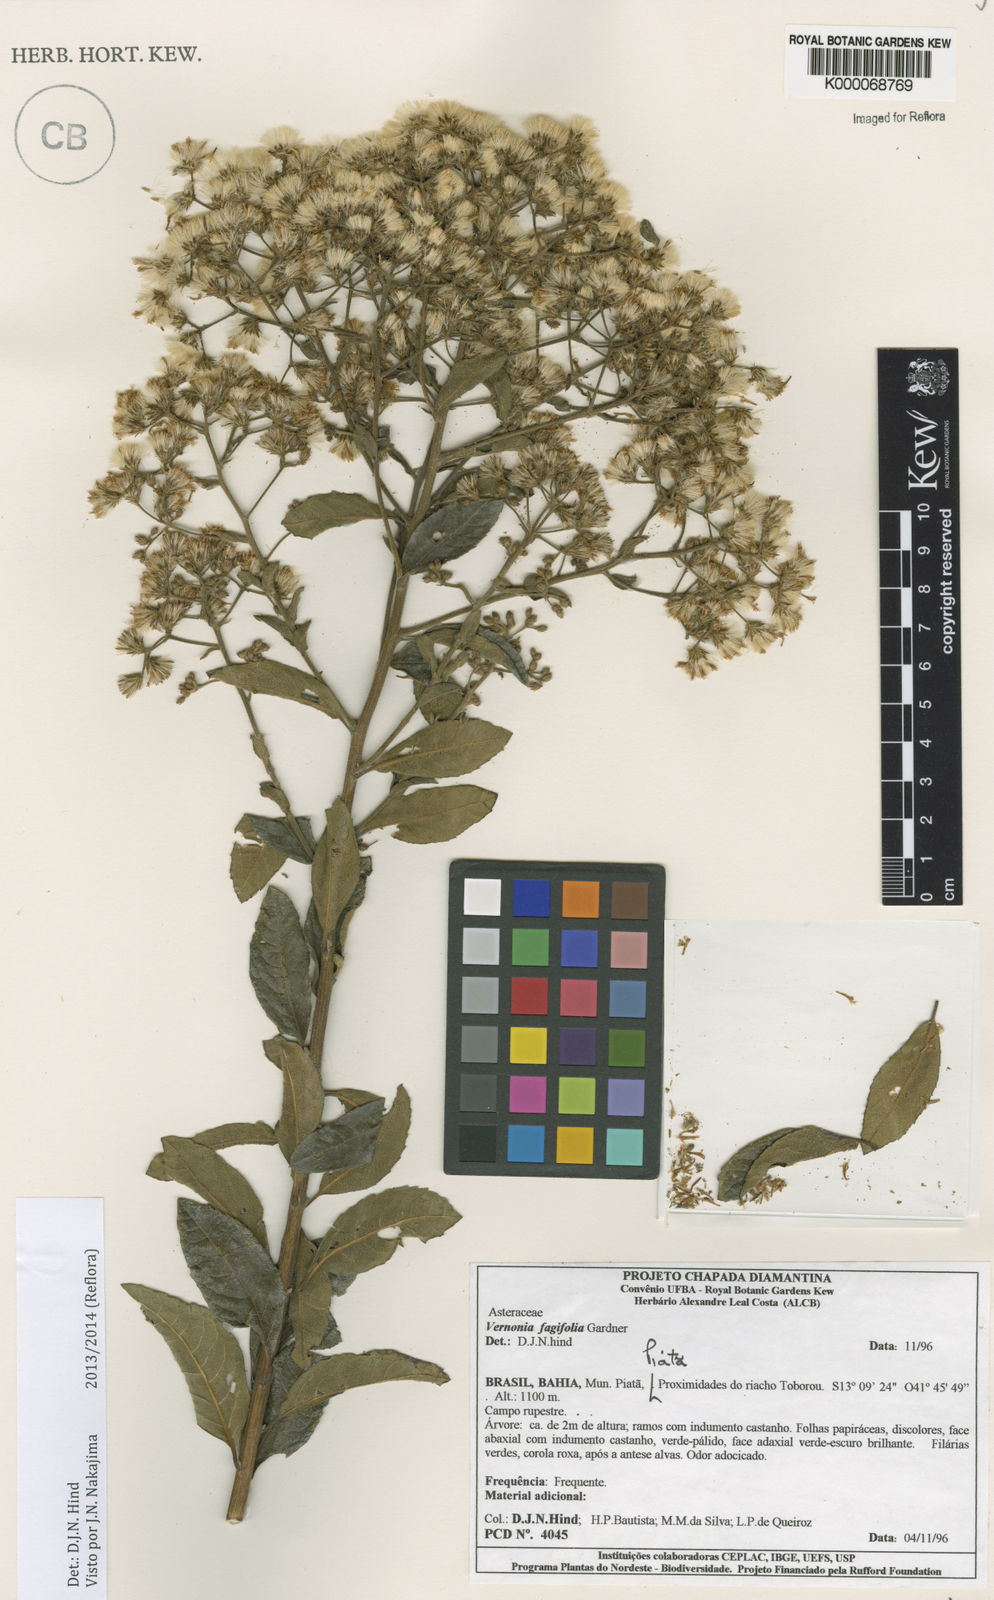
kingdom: Plantae
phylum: Tracheophyta
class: Magnoliopsida
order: Asterales
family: Asteraceae
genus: Vernonanthura
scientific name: Vernonanthura fagifolia
